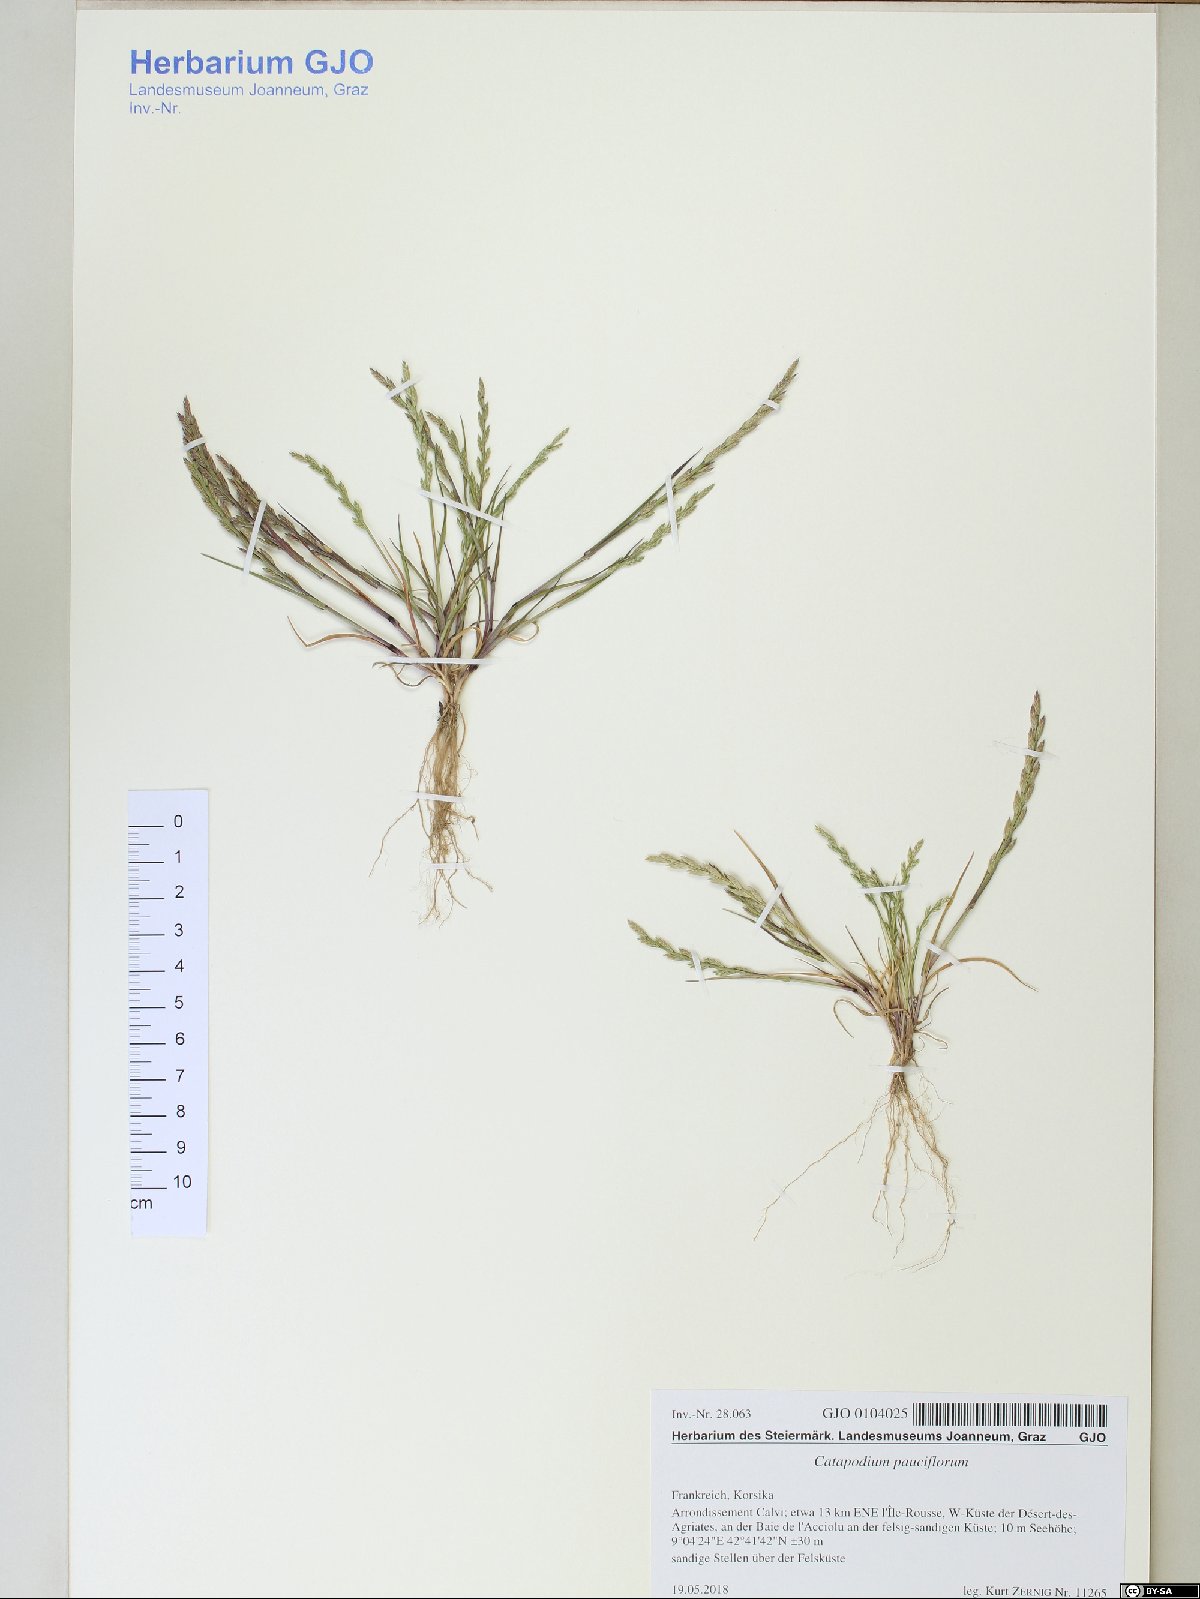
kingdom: Plantae
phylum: Tracheophyta
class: Liliopsida
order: Poales
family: Poaceae
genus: Catapodium
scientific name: Catapodium pauciflorum
